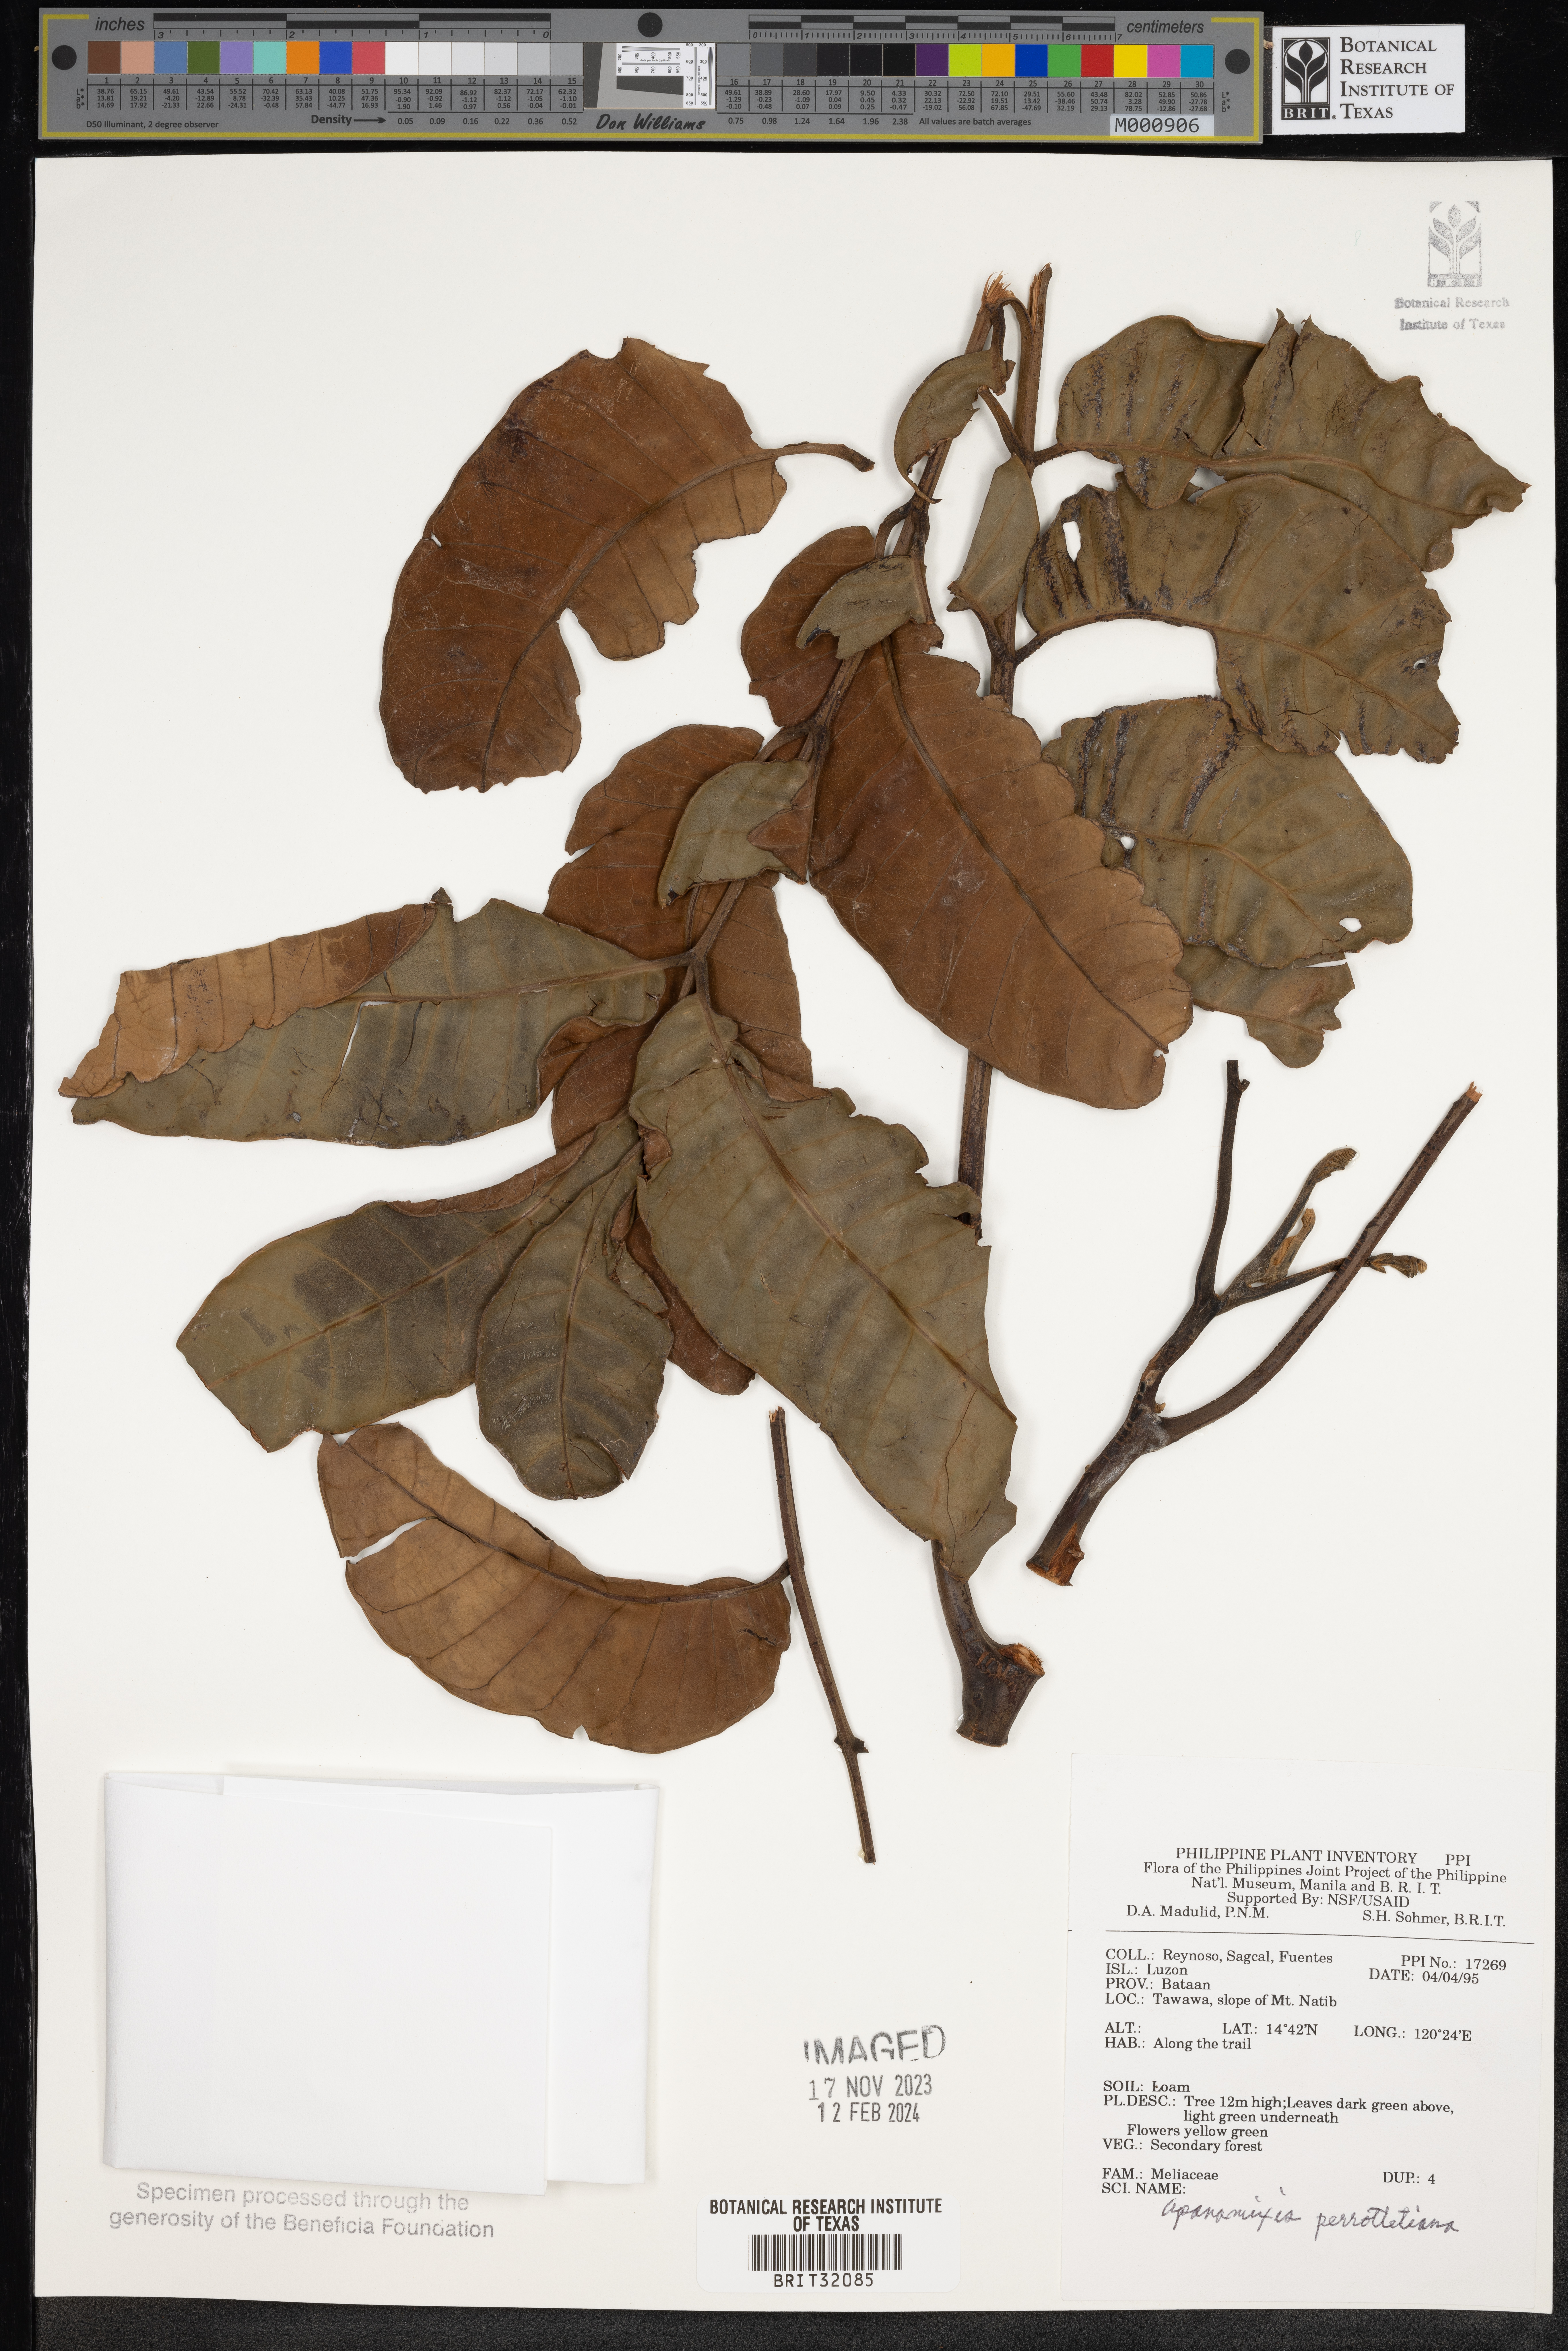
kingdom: Plantae
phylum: Tracheophyta
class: Magnoliopsida
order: Sapindales
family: Meliaceae
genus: Aphanamixis
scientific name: Aphanamixis polystachya
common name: Pithraj tree
